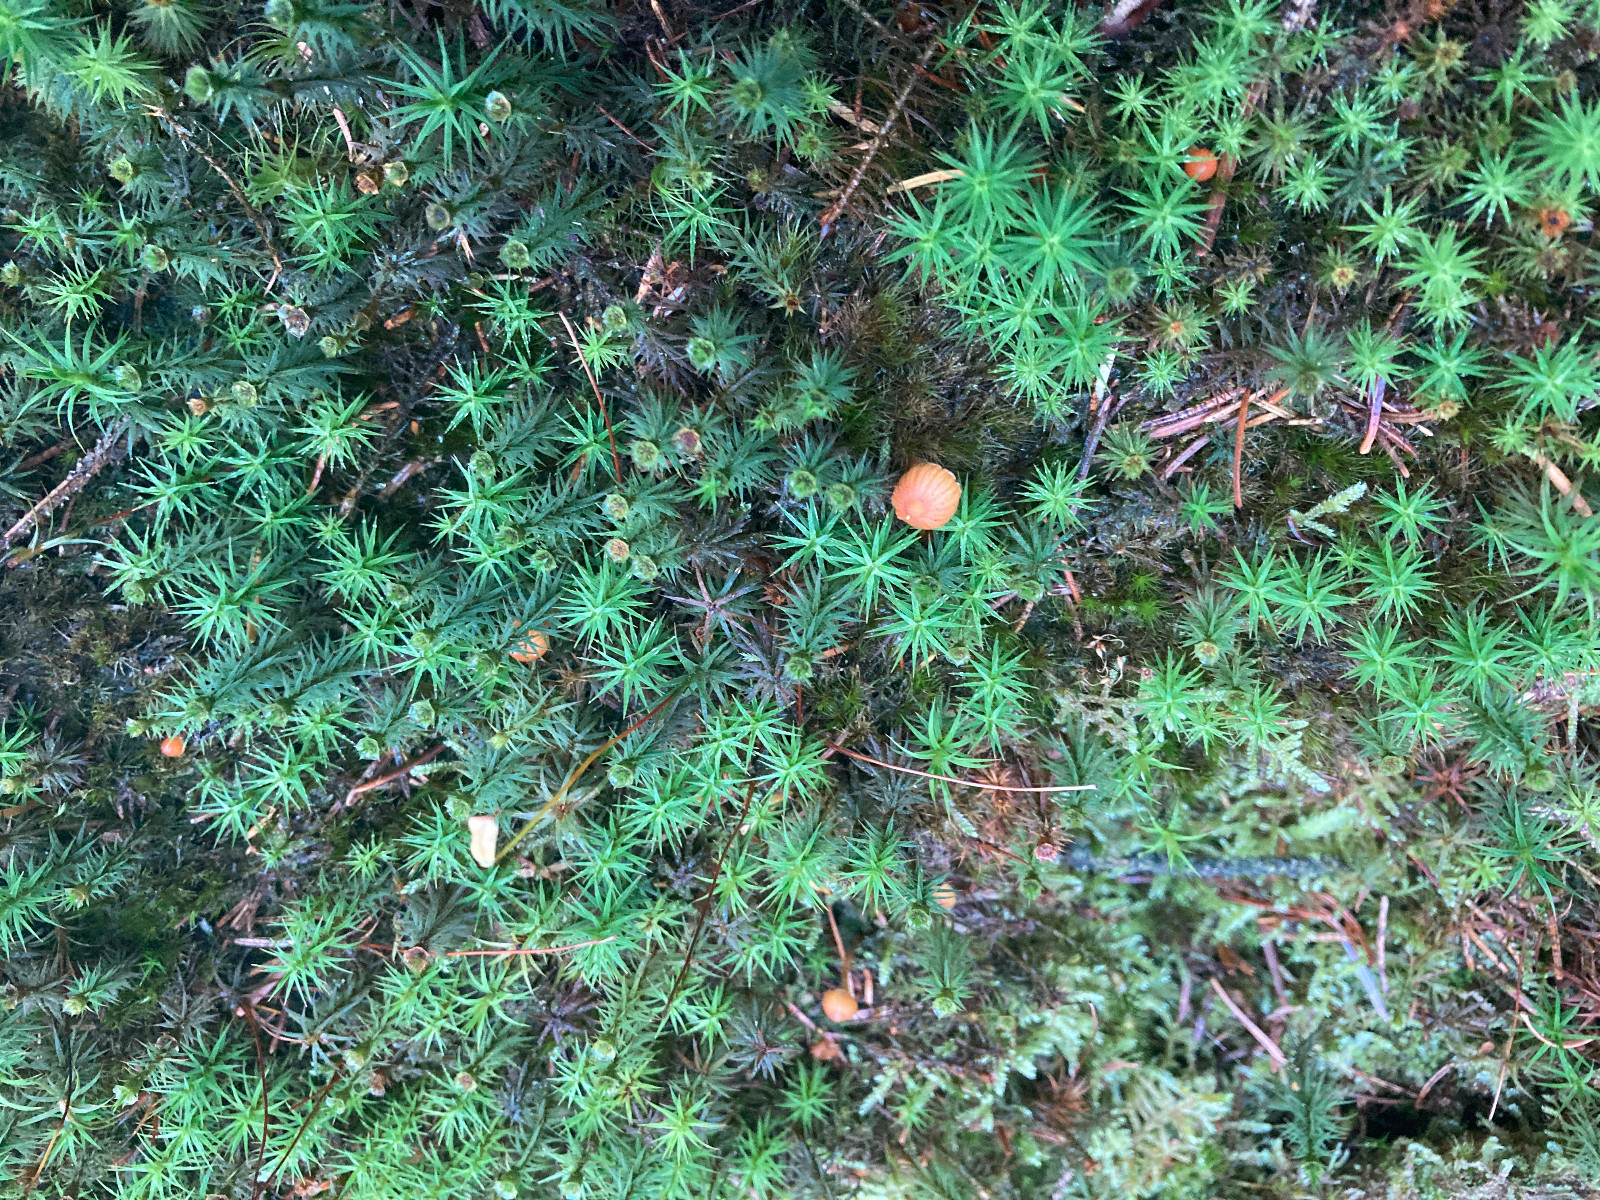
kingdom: Fungi
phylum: Basidiomycota
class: Agaricomycetes
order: Agaricales
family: Hymenogastraceae
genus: Galerina
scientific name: Galerina
